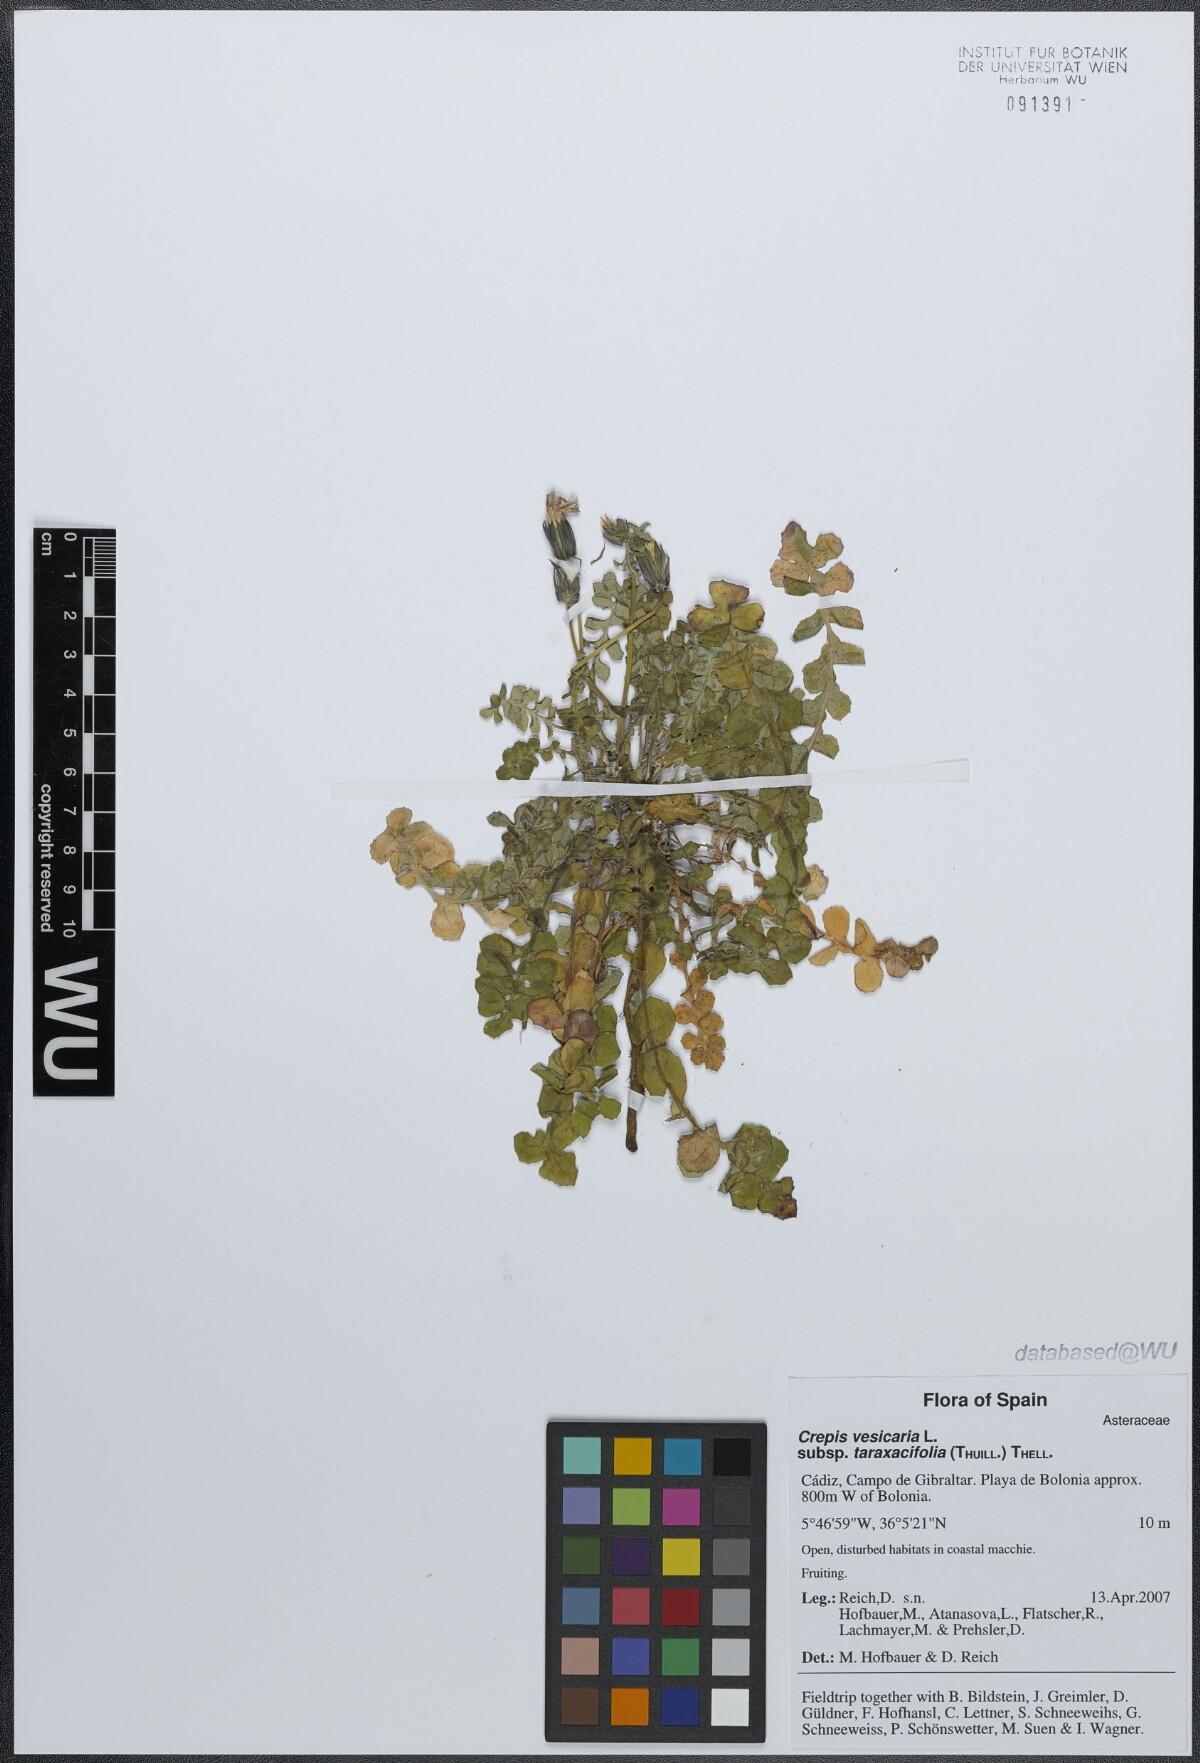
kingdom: Plantae
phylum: Tracheophyta
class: Magnoliopsida
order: Asterales
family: Asteraceae
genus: Crepis
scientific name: Crepis vesicaria
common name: Beaked hawksbeard
